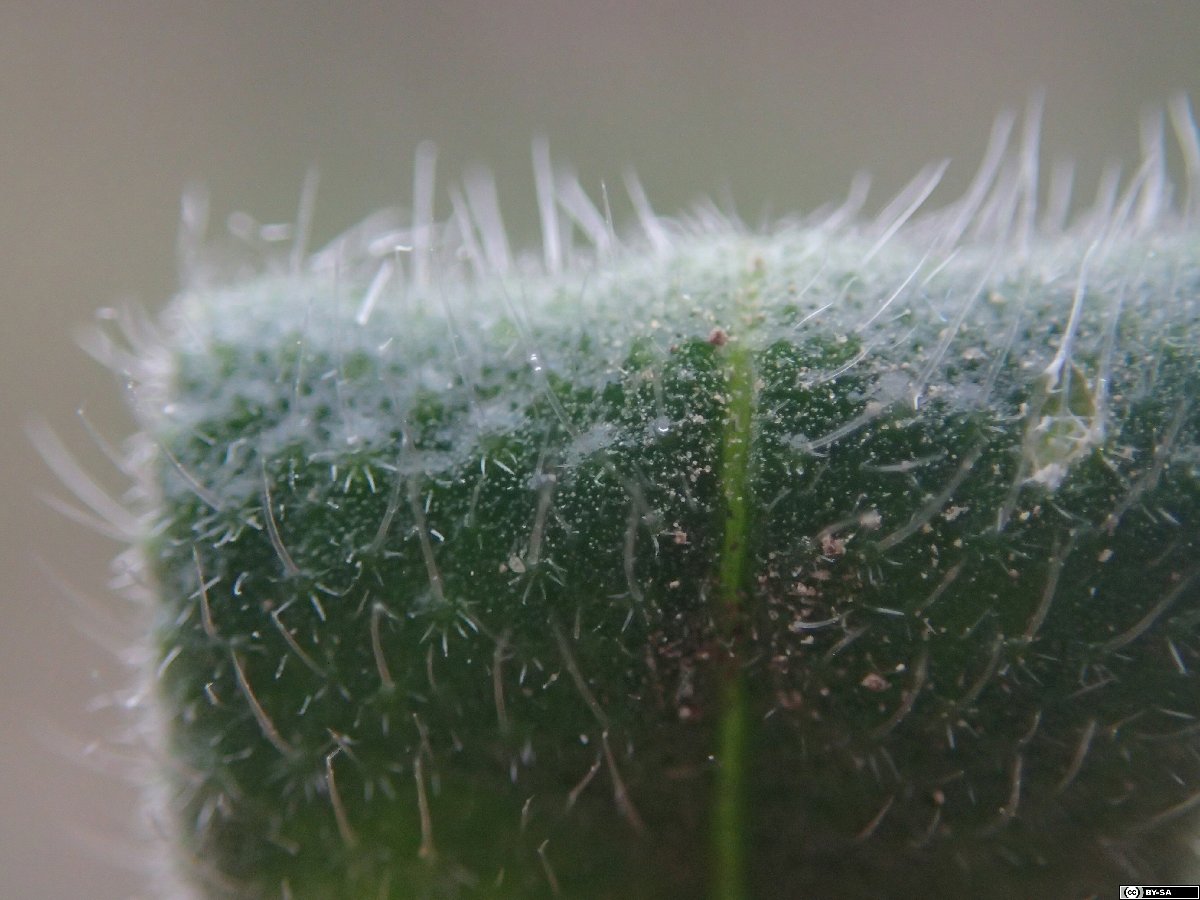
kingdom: Plantae
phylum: Tracheophyta
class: Magnoliopsida
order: Boraginales
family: Boraginaceae
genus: Onosma
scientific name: Onosma arenaria
